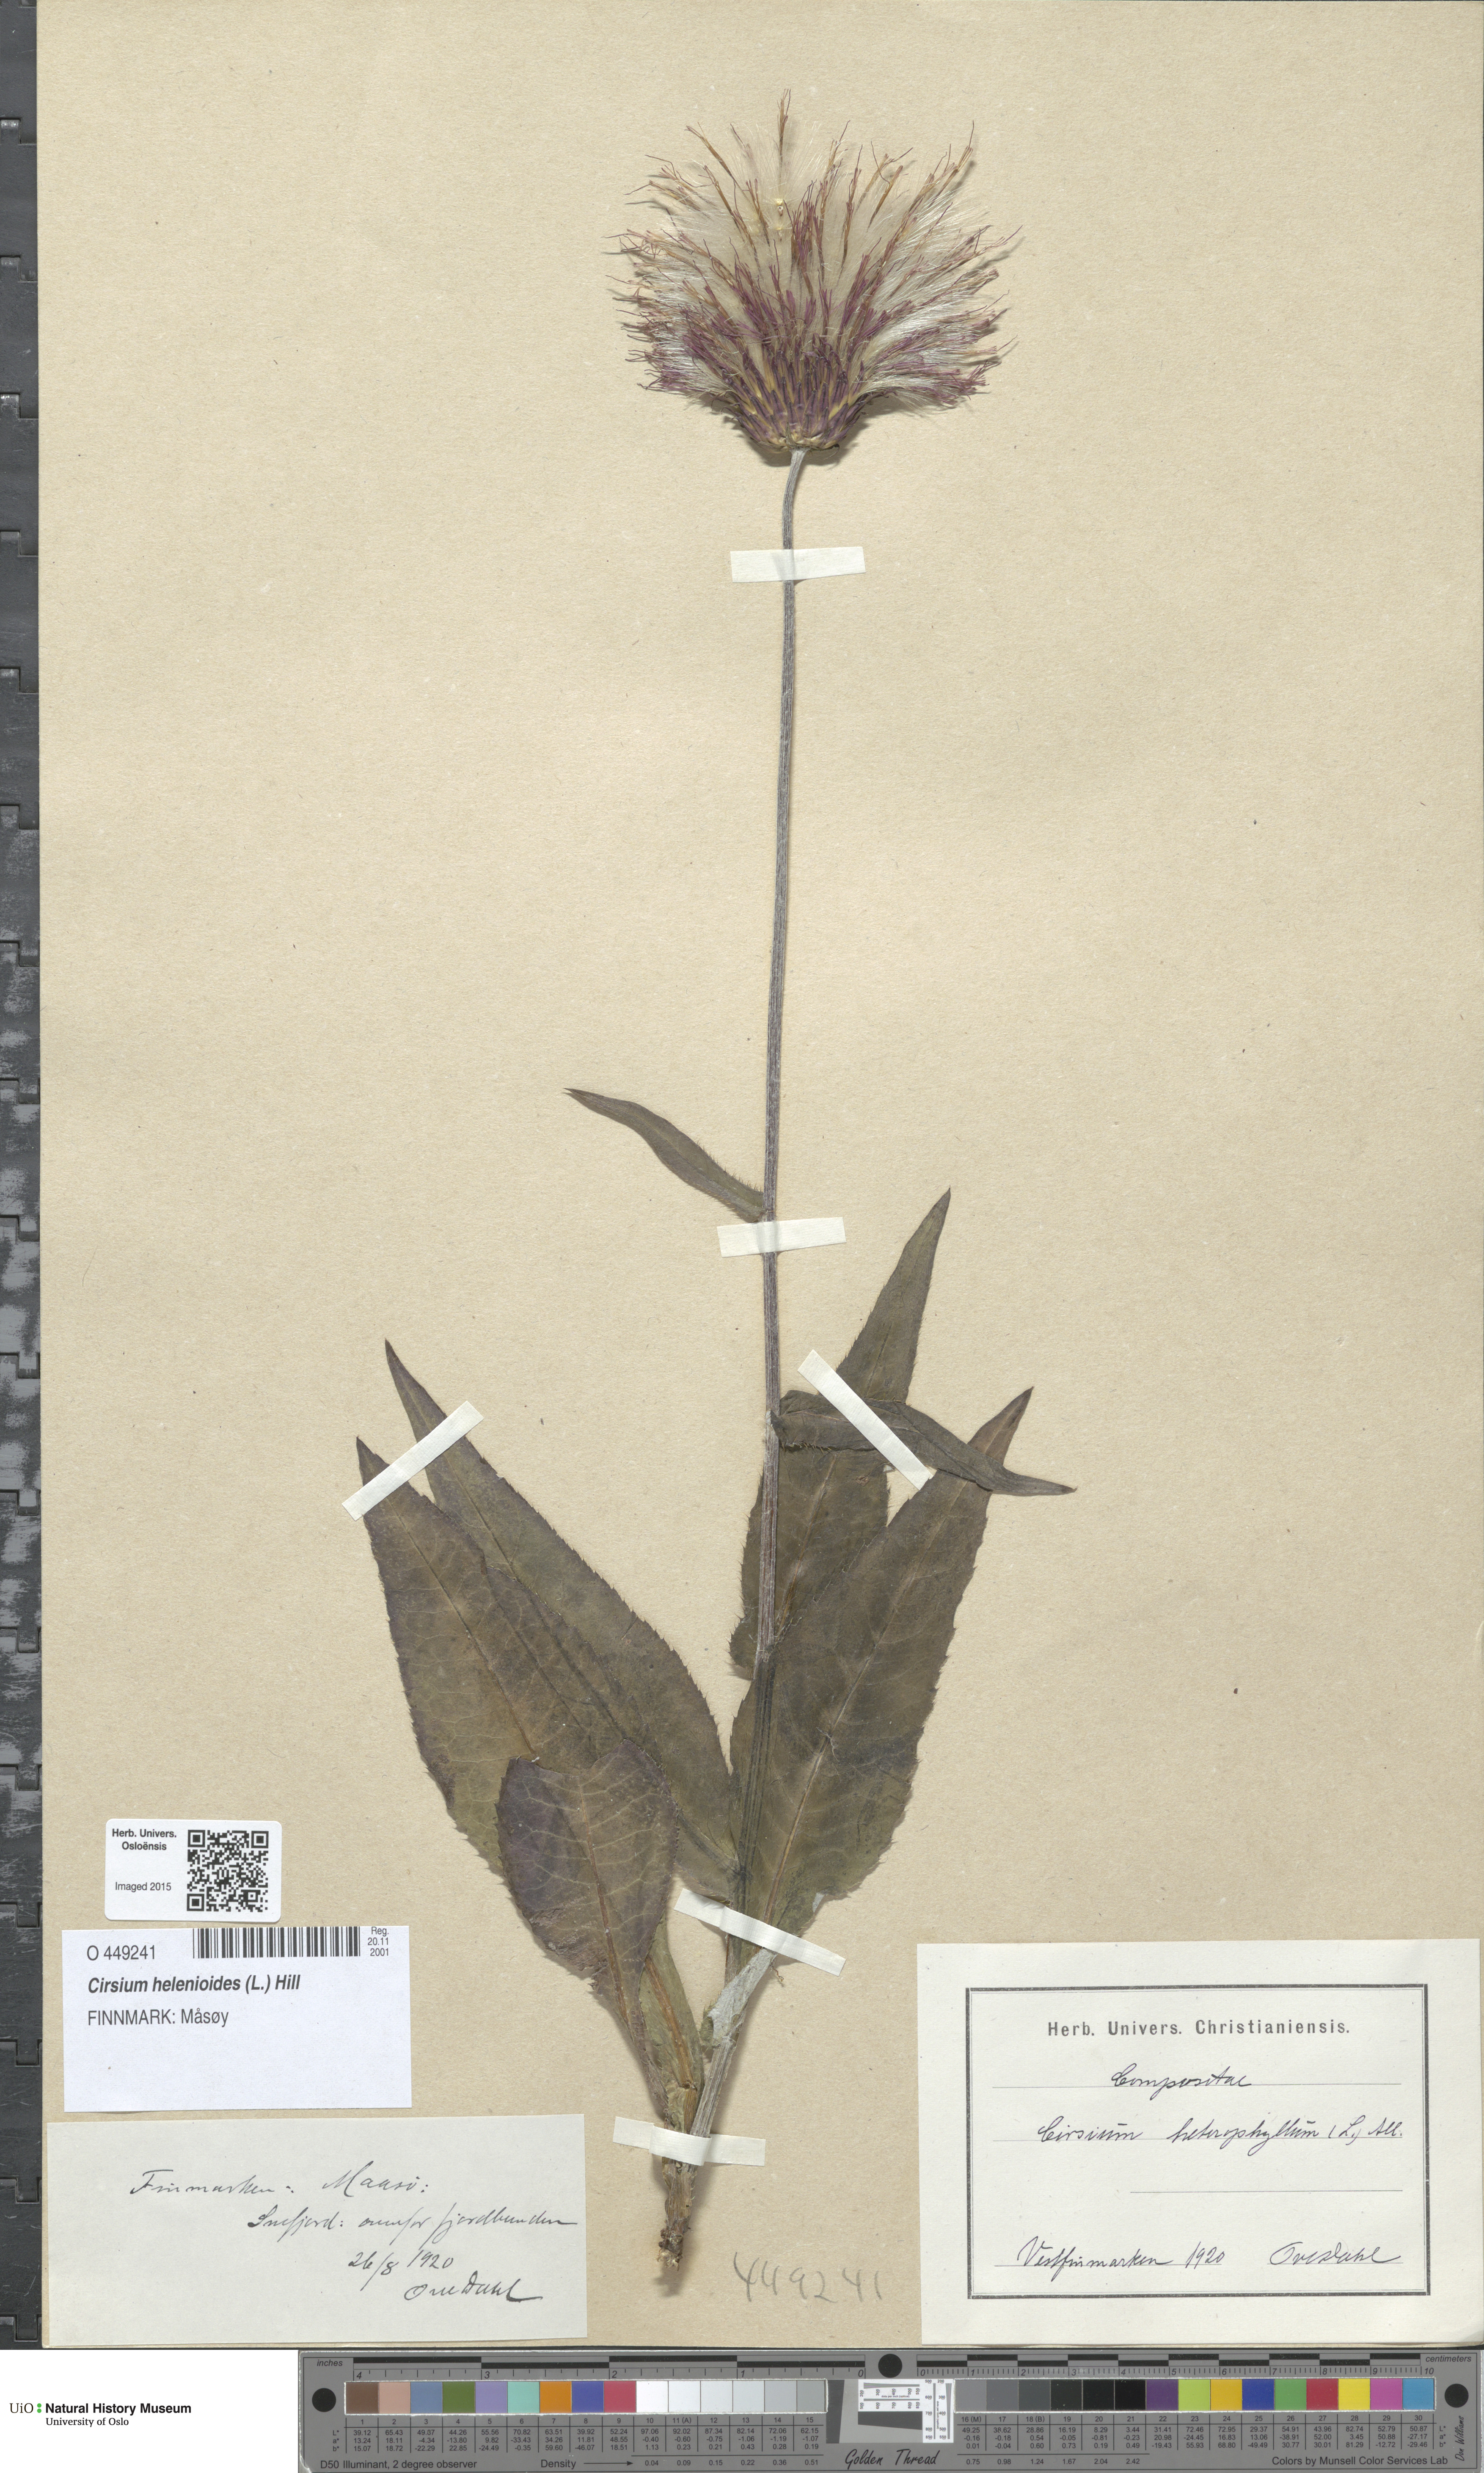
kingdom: Plantae
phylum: Tracheophyta
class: Magnoliopsida
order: Asterales
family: Asteraceae
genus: Cirsium
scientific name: Cirsium heterophyllum
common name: Melancholy thistle
